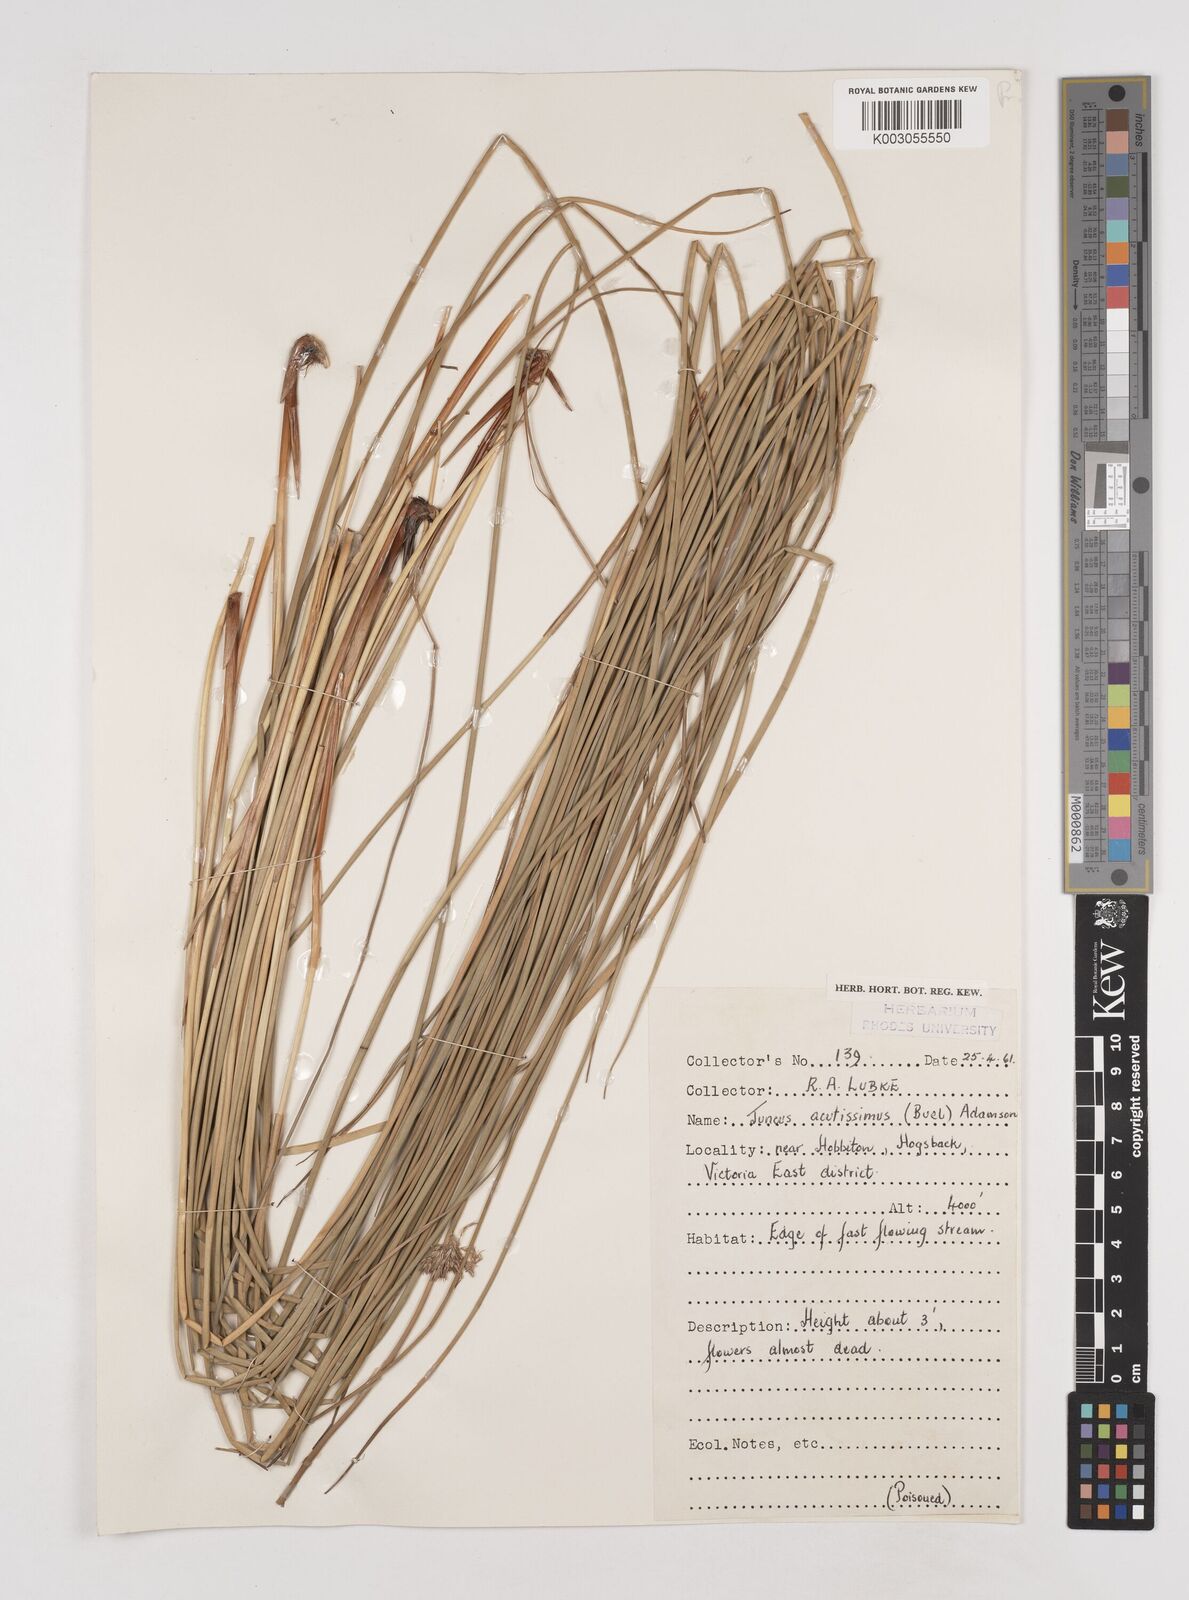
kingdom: Plantae
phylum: Tracheophyta
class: Liliopsida
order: Poales
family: Juncaceae
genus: Juncus
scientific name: Juncus inflexus
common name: Hard rush
